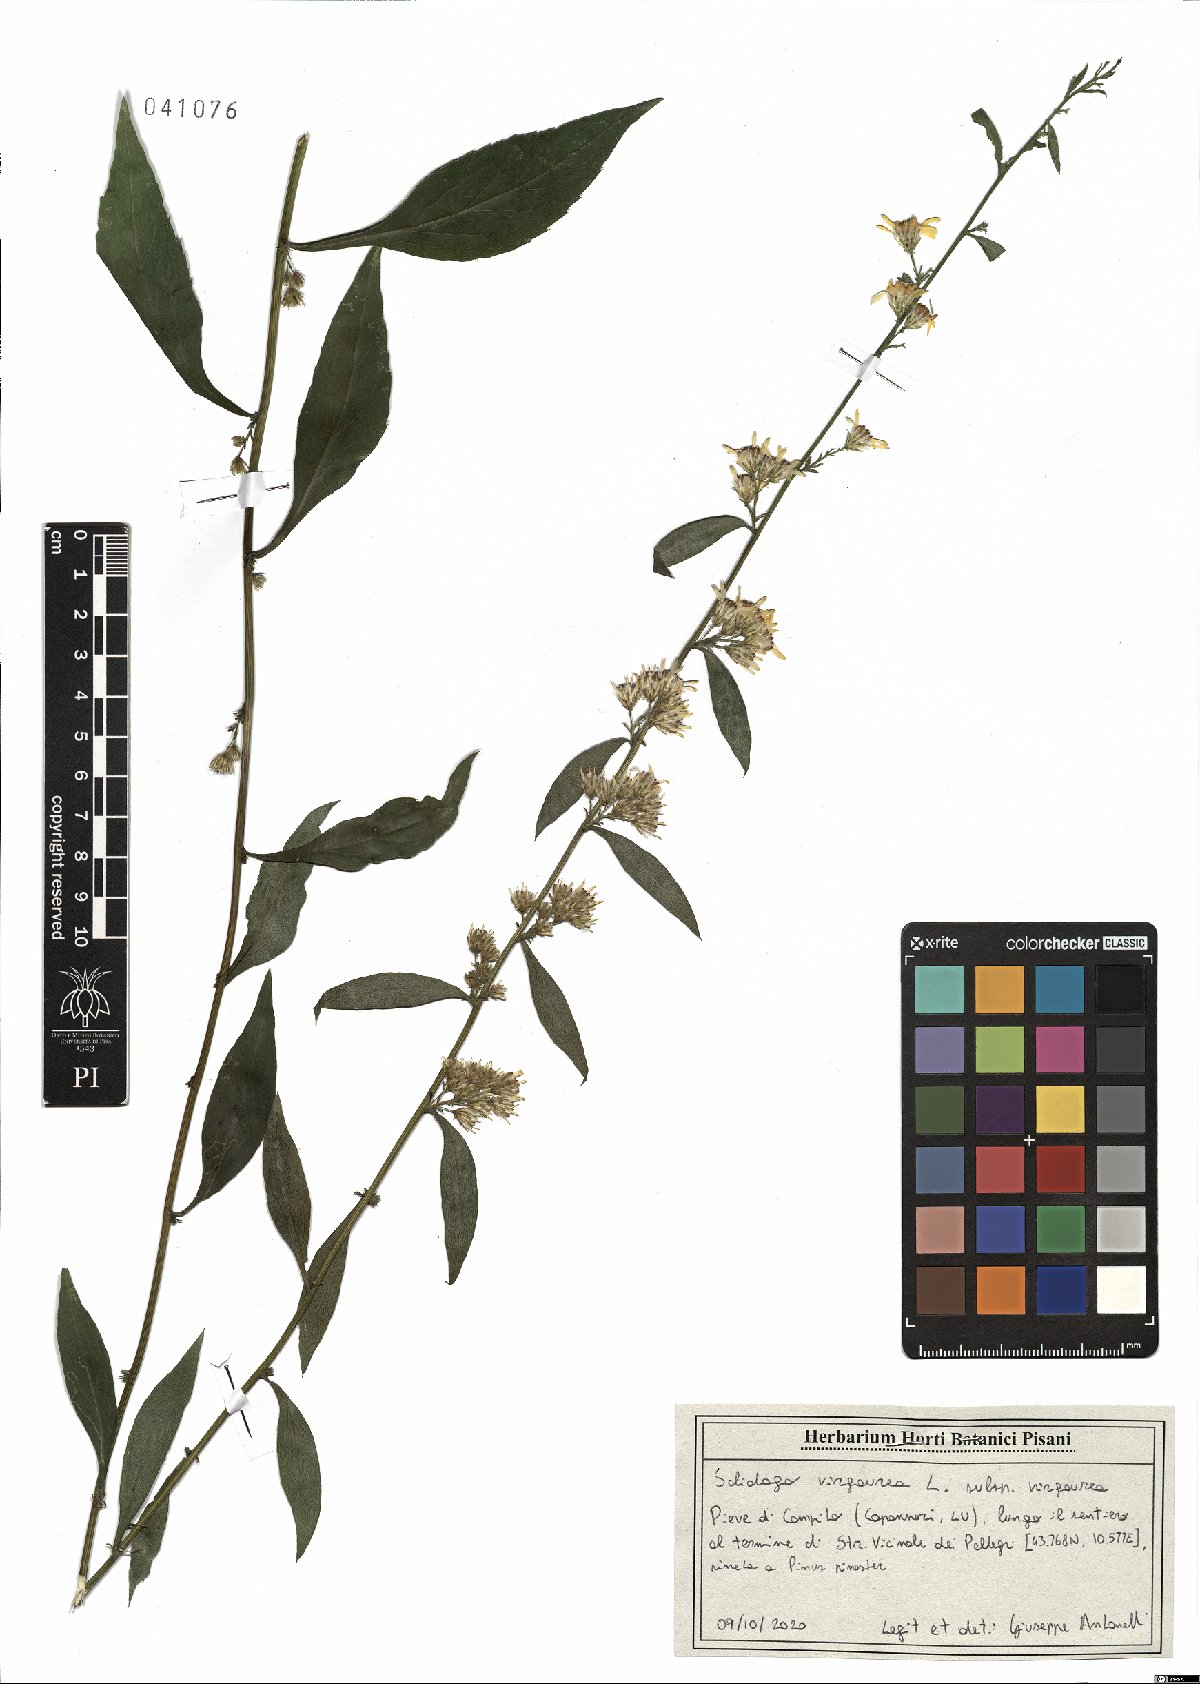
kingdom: Plantae
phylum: Tracheophyta
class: Magnoliopsida
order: Asterales
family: Asteraceae
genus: Solidago
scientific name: Solidago virgaurea
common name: Goldenrod
